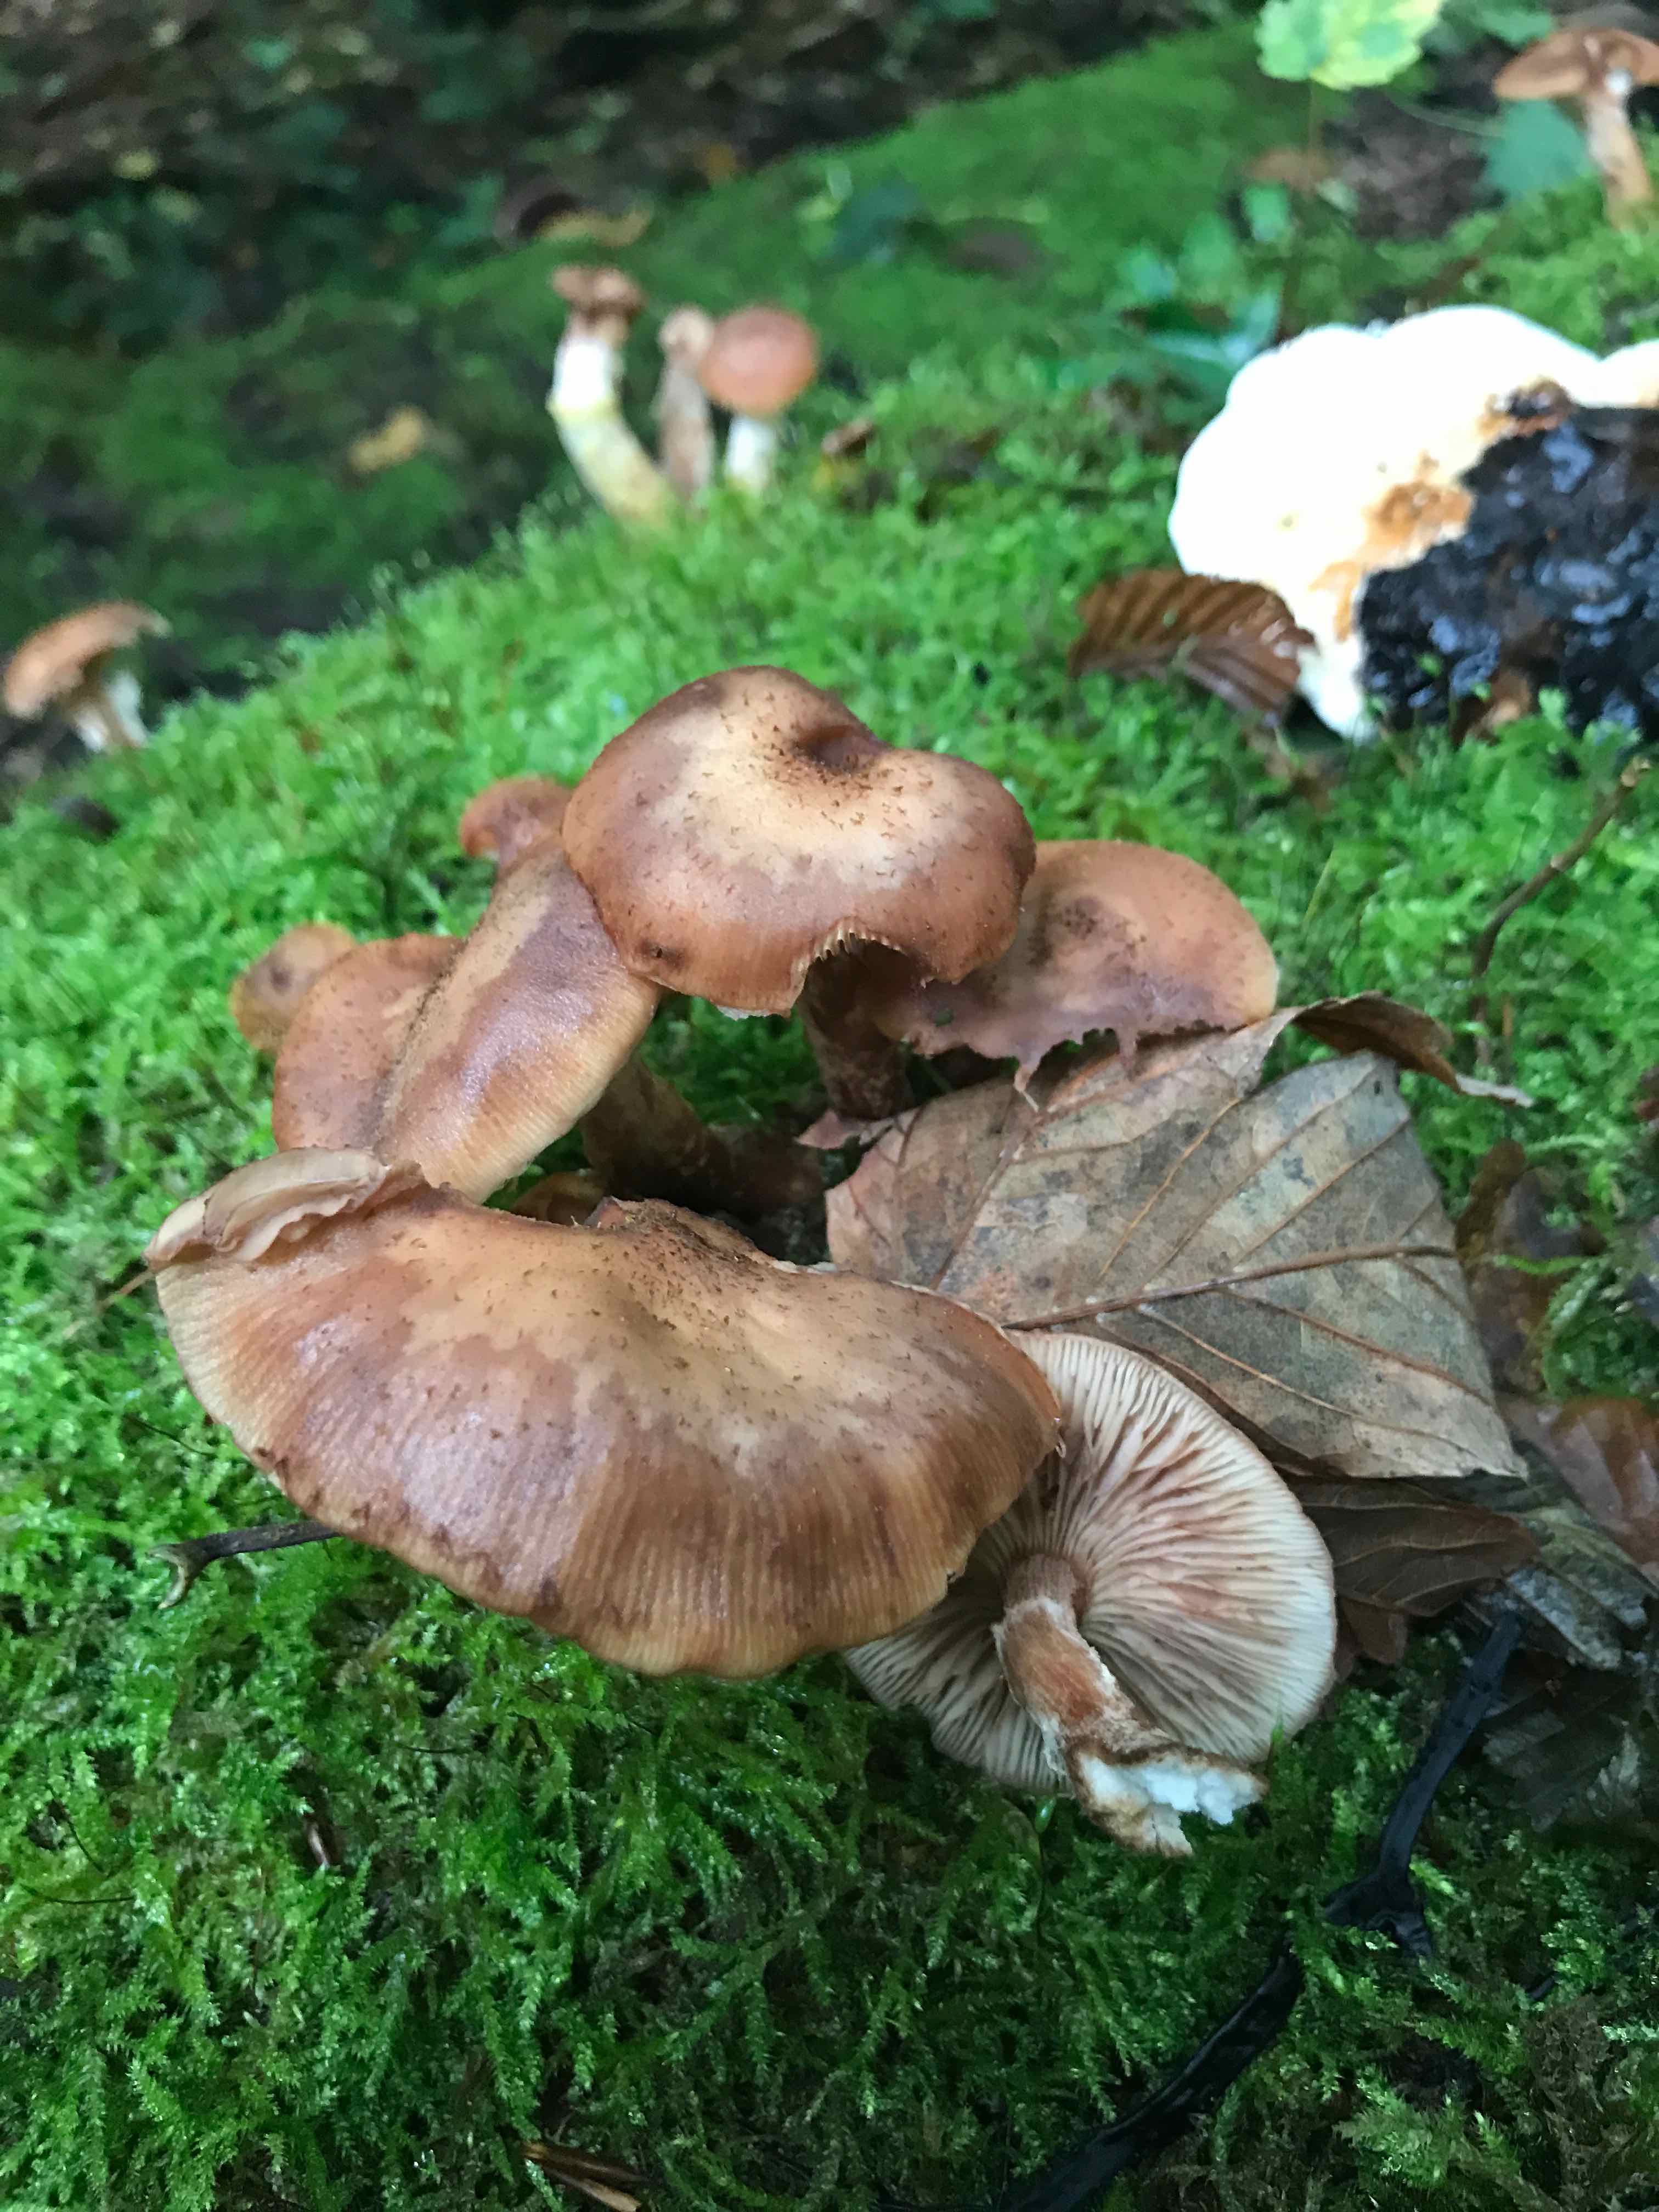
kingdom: Fungi
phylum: Basidiomycota
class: Agaricomycetes
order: Agaricales
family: Physalacriaceae
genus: Armillaria
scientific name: Armillaria
